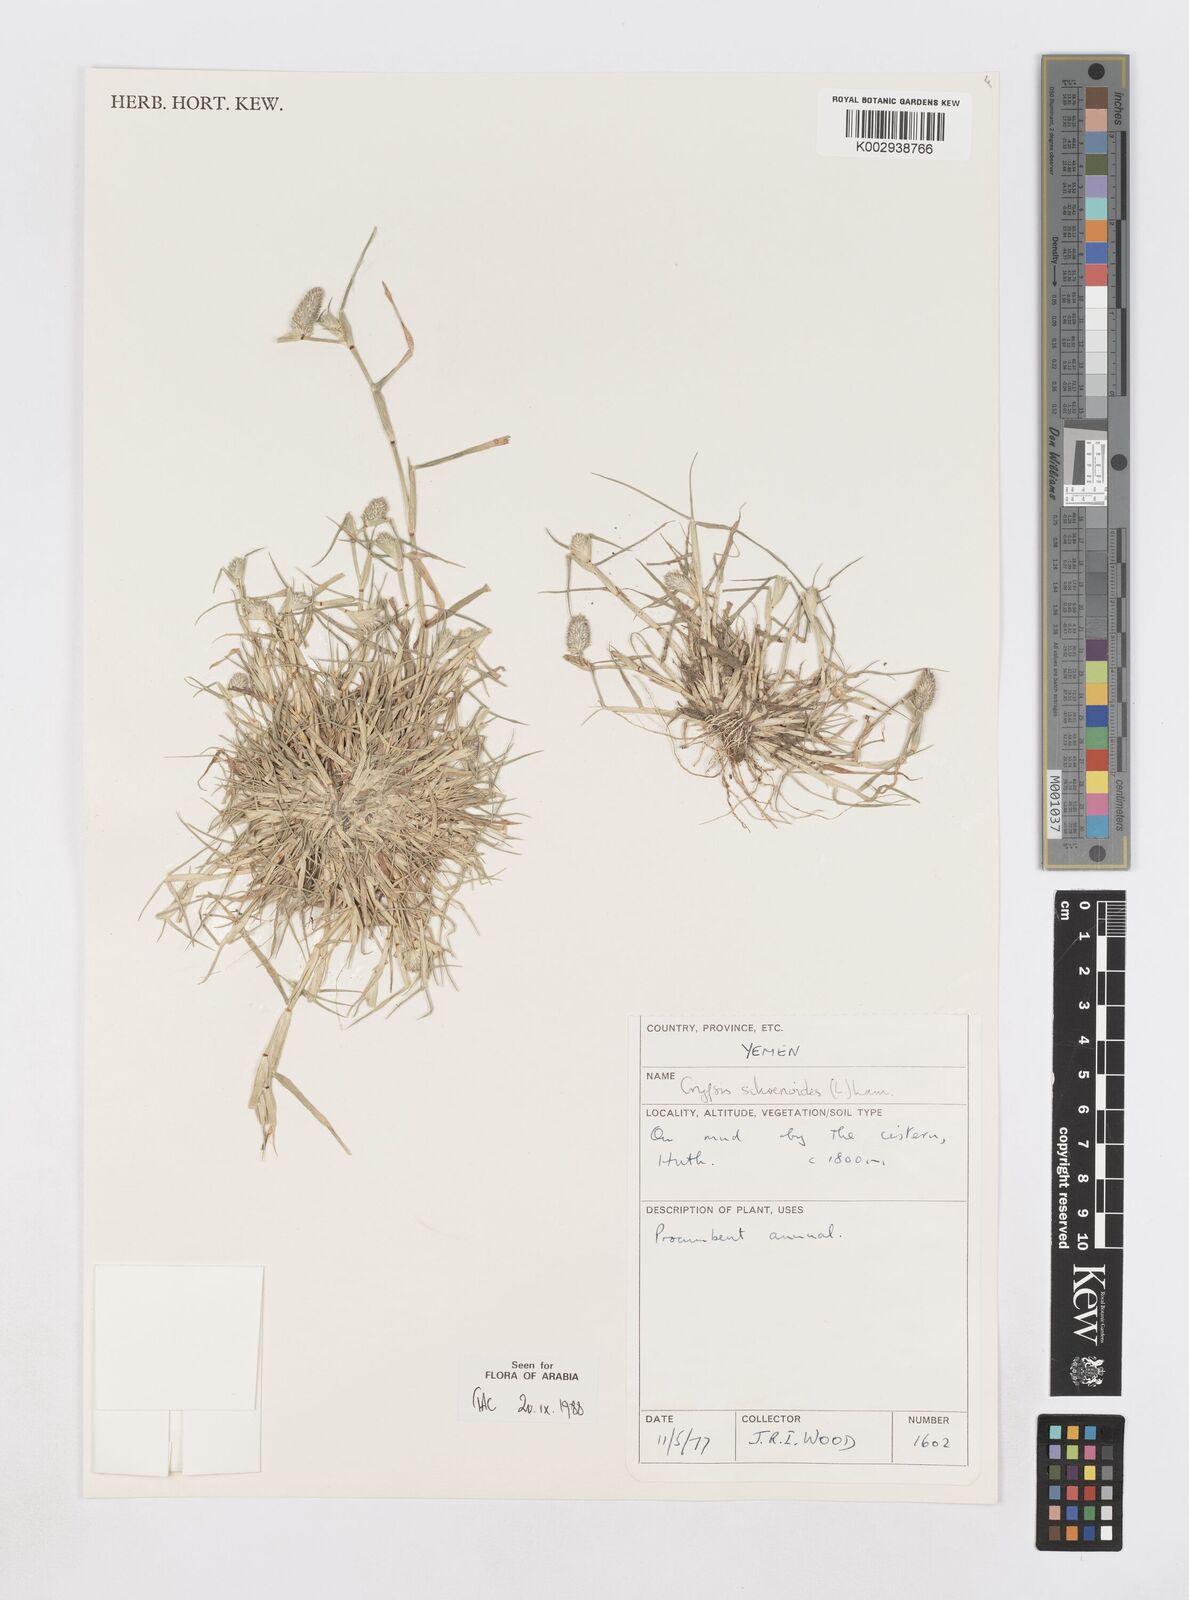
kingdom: Plantae
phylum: Tracheophyta
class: Liliopsida
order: Poales
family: Poaceae
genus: Sporobolus
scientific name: Sporobolus schoenoides
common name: Rush-like timothy
